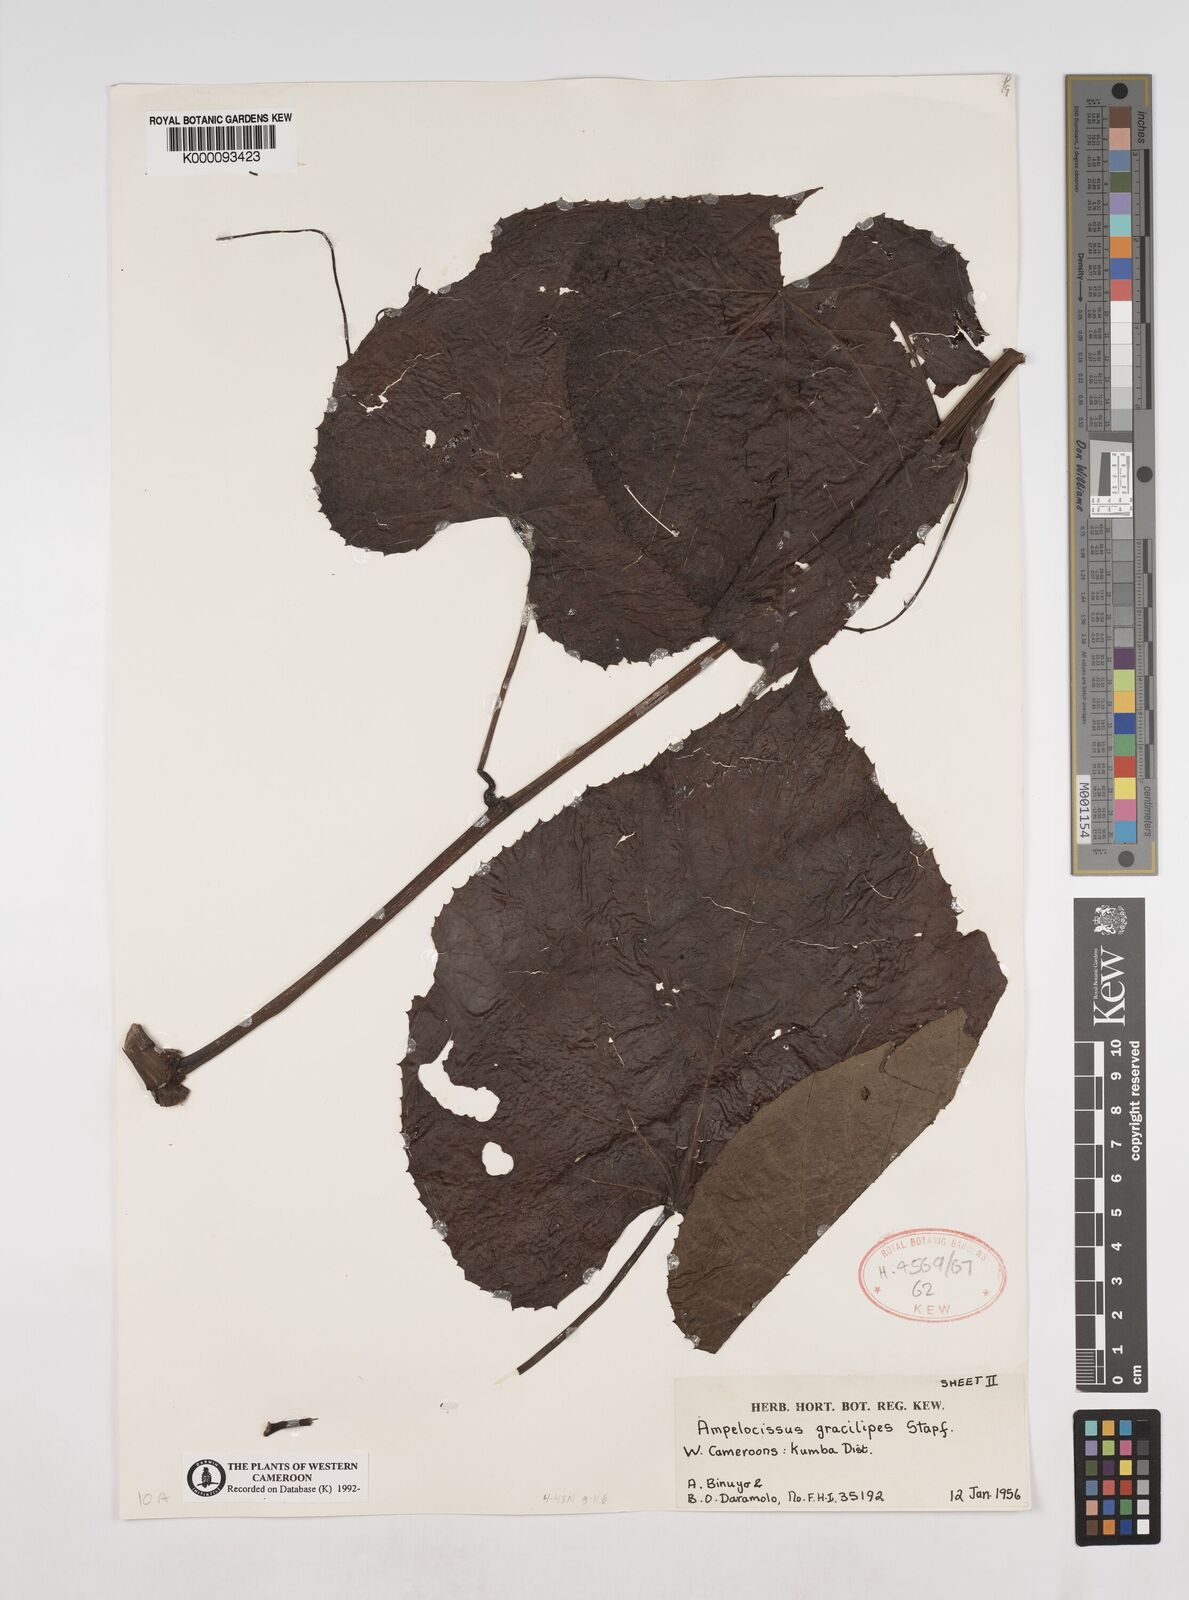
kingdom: Plantae
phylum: Tracheophyta
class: Magnoliopsida
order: Vitales
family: Vitaceae
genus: Ampelocissus
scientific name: Ampelocissus gracilipes
